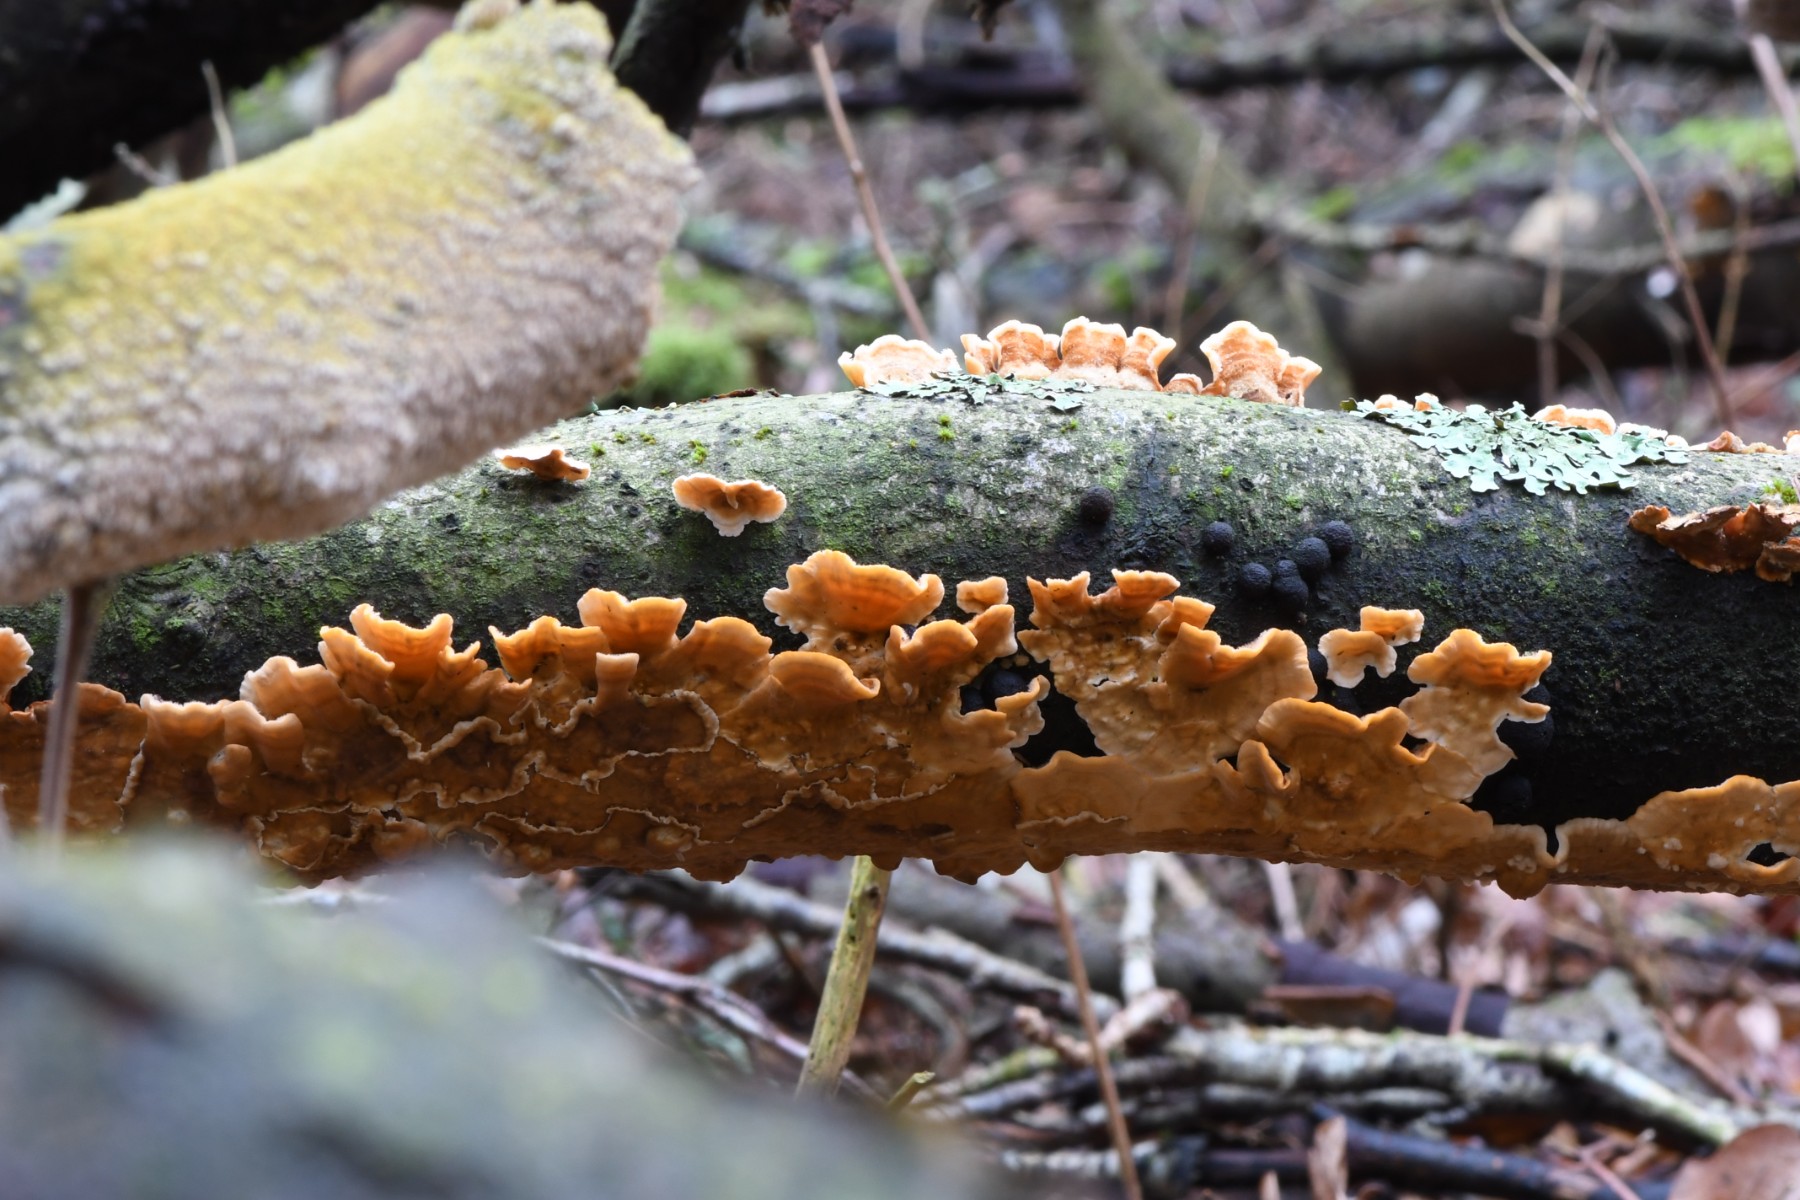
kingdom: Fungi
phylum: Basidiomycota
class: Agaricomycetes
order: Russulales
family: Stereaceae
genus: Stereum
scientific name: Stereum hirsutum
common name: håret lædersvamp
